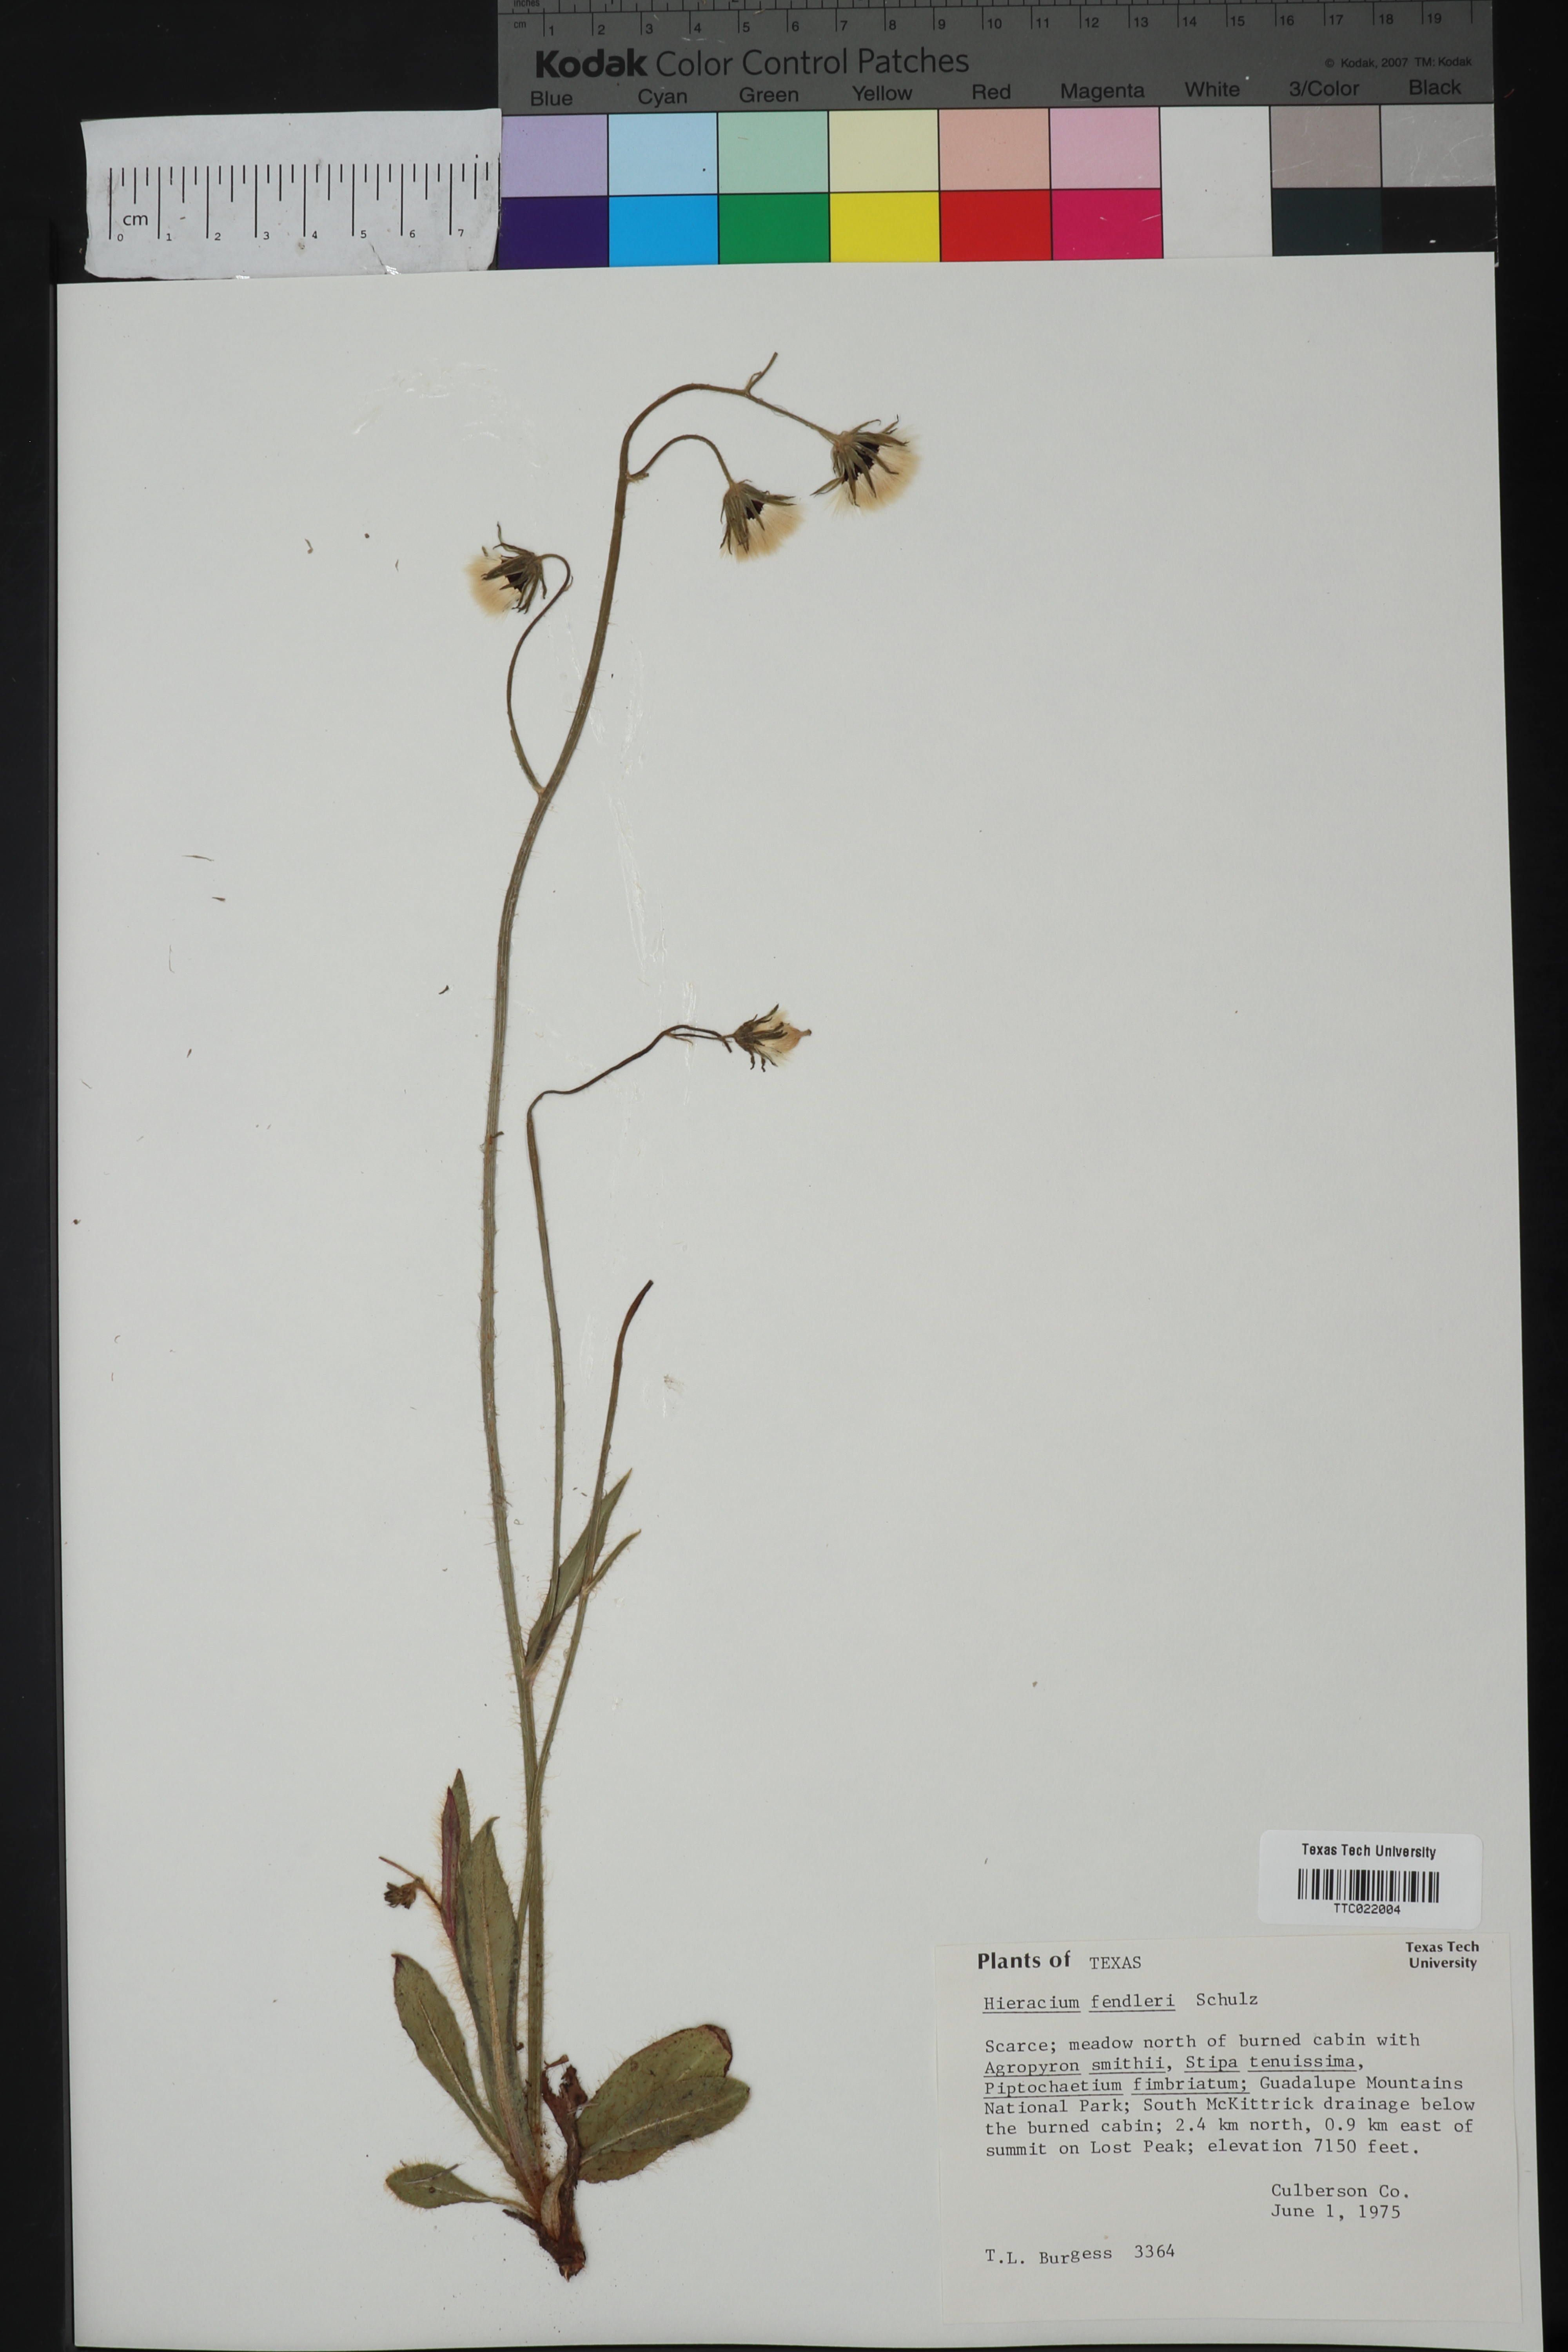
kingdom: Plantae
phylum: Tracheophyta
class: Magnoliopsida
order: Asterales
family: Asteraceae
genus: Hieracium
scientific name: Hieracium fendleri
